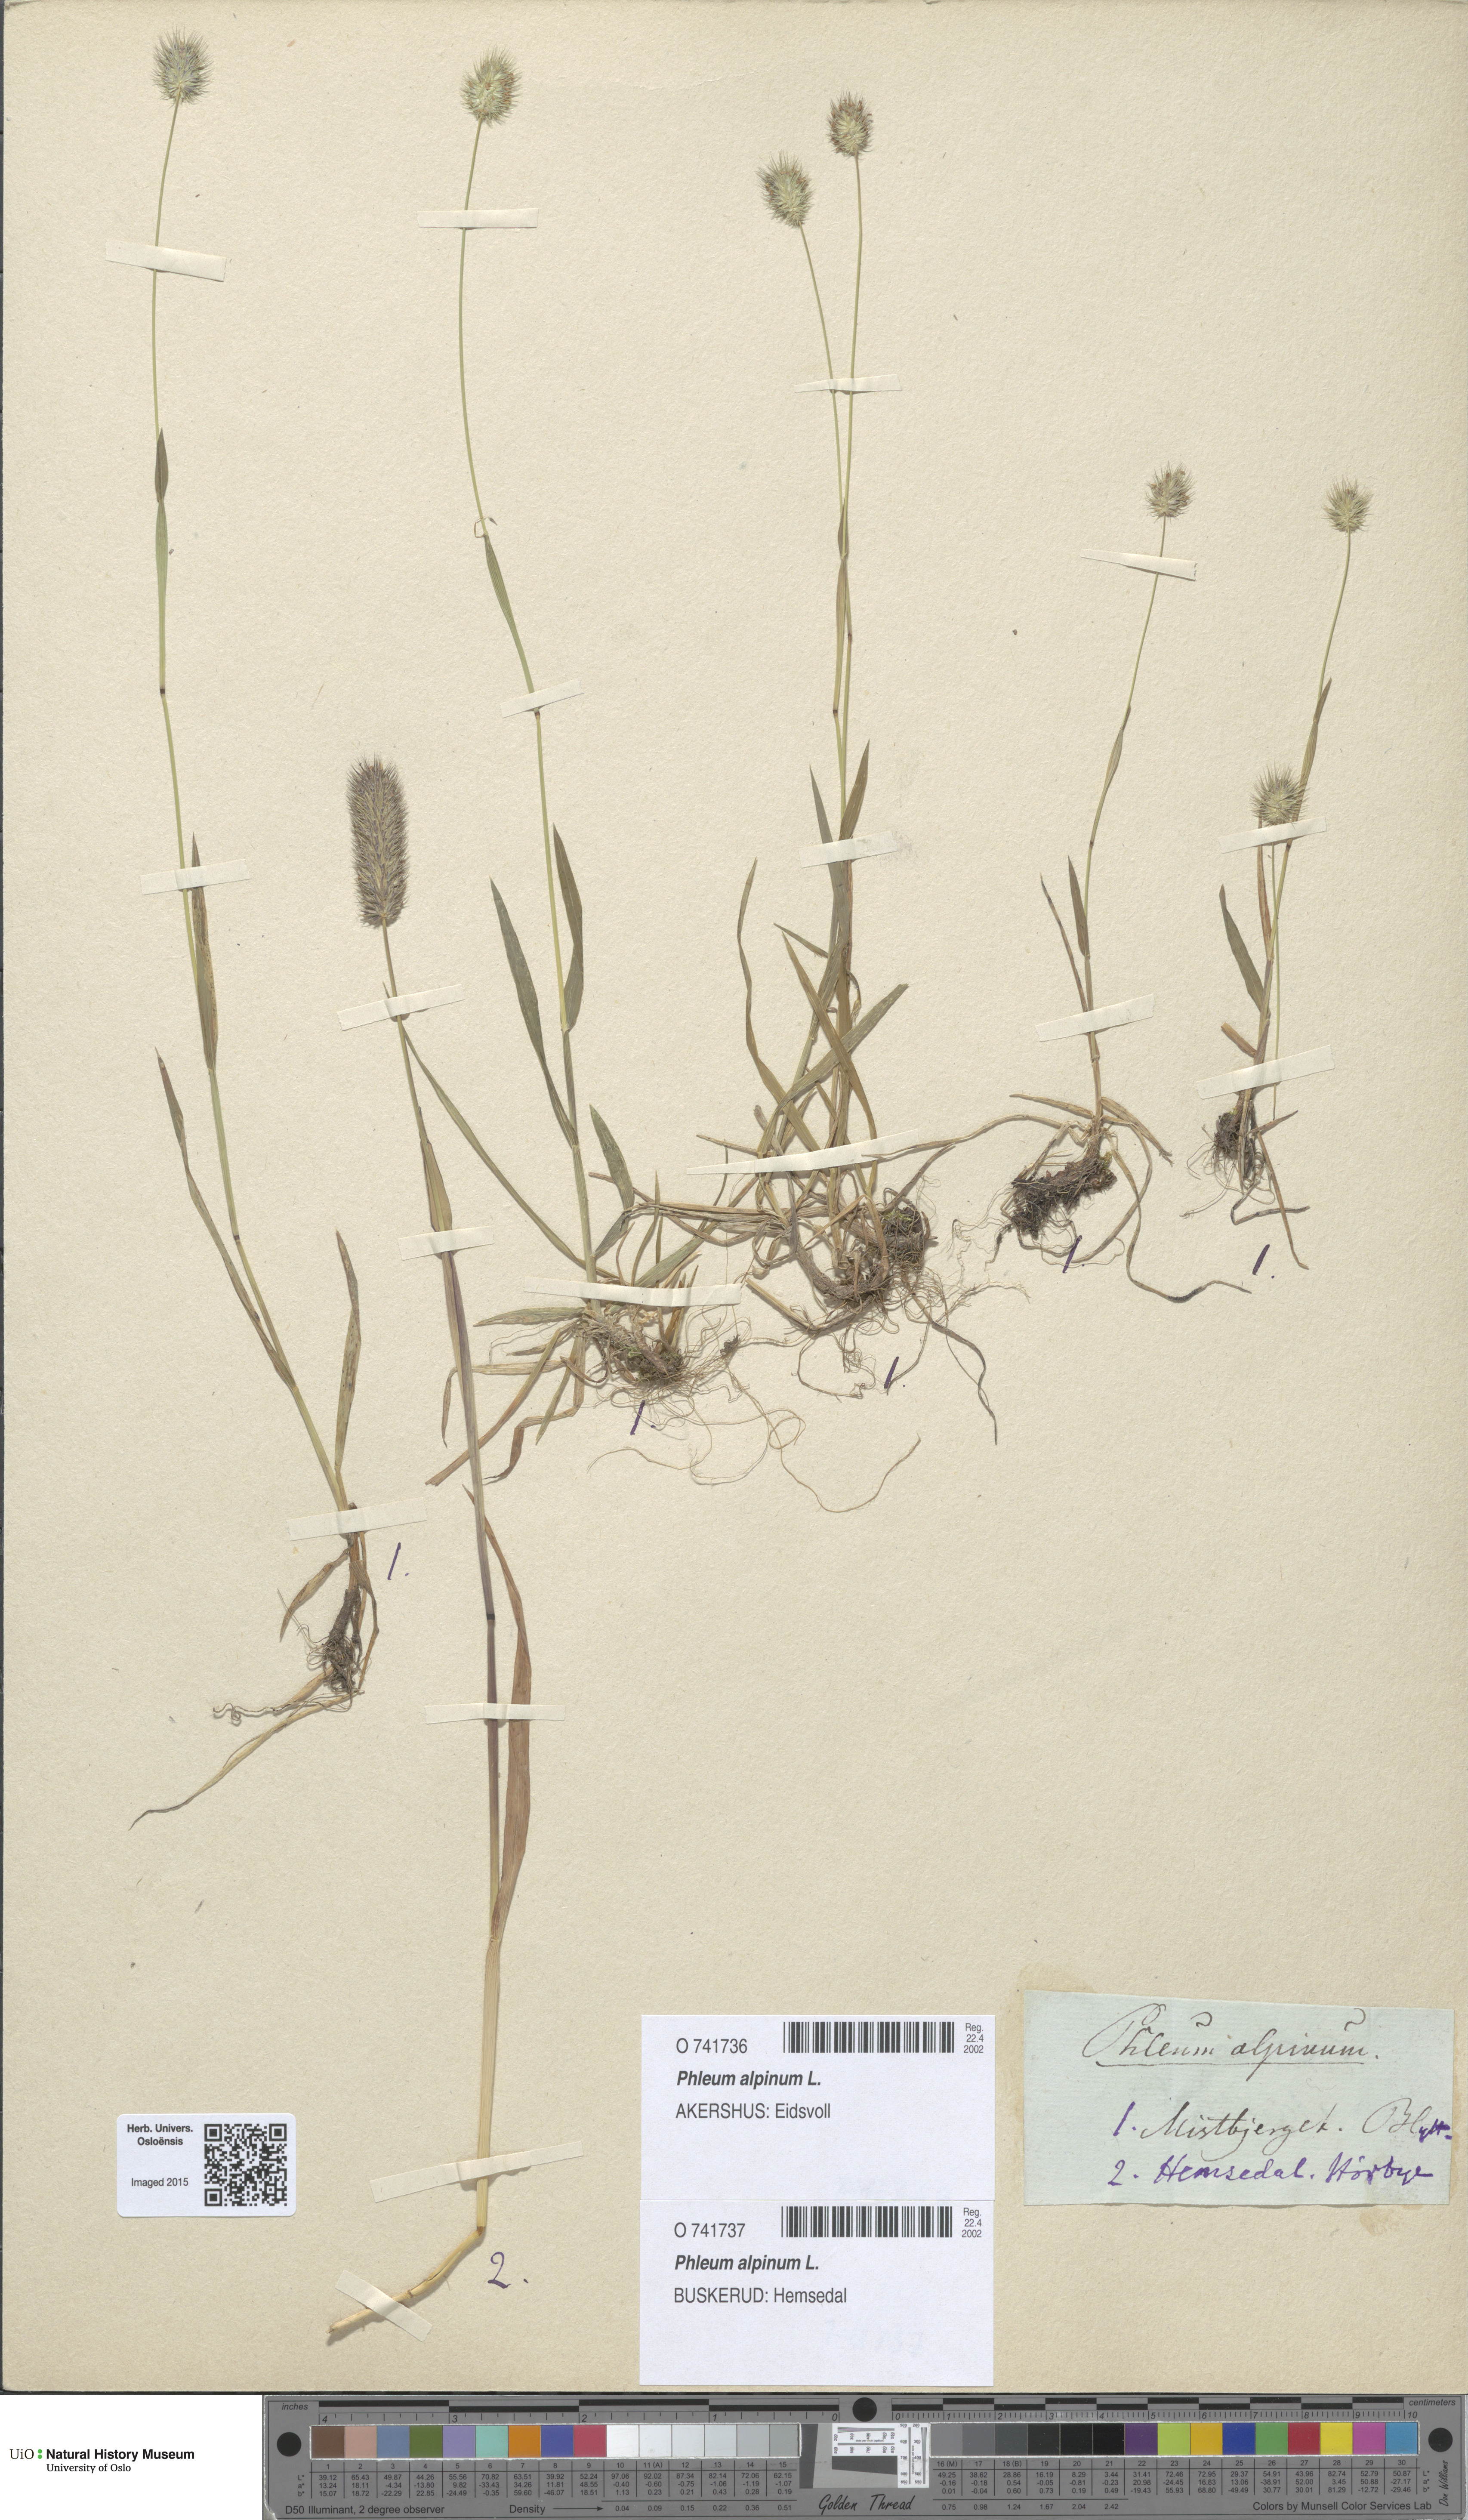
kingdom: Plantae
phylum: Tracheophyta
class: Liliopsida
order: Poales
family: Poaceae
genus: Phleum
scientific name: Phleum alpinum
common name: Alpine cat's-tail
